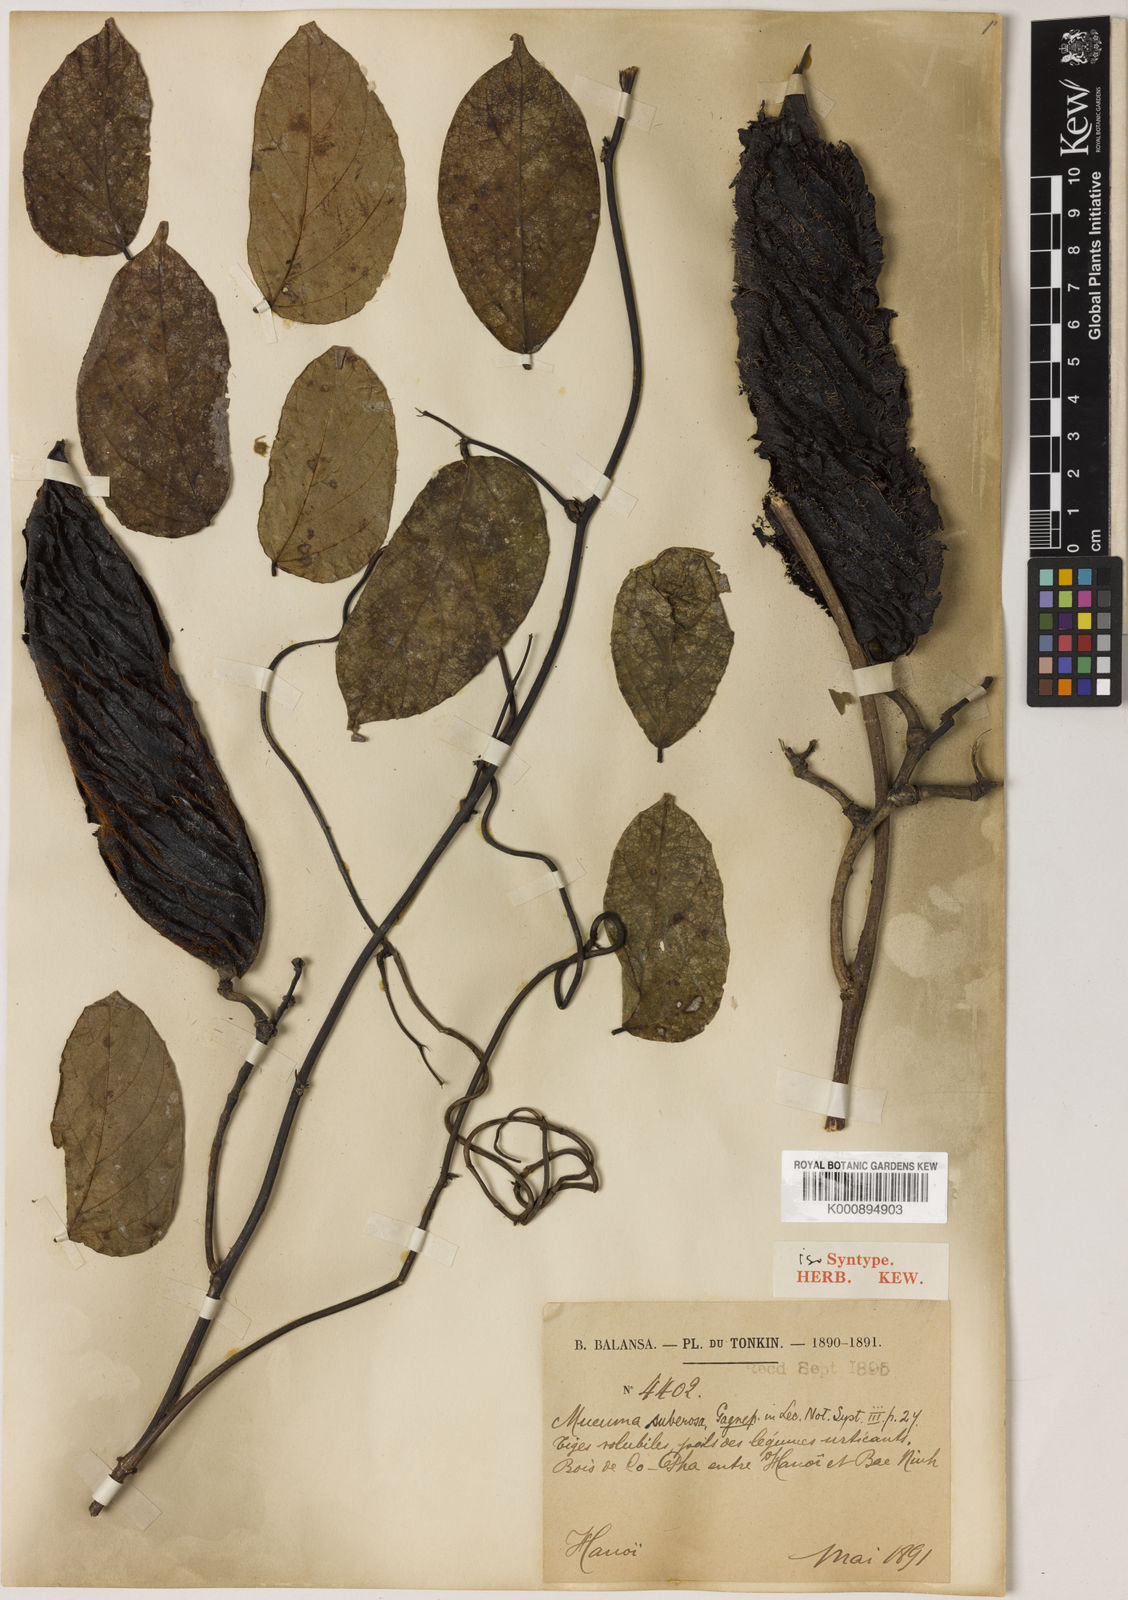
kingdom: Plantae
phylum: Tracheophyta
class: Magnoliopsida
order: Fabales
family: Fabaceae
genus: Mucuna
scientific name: Mucuna hainanensis
